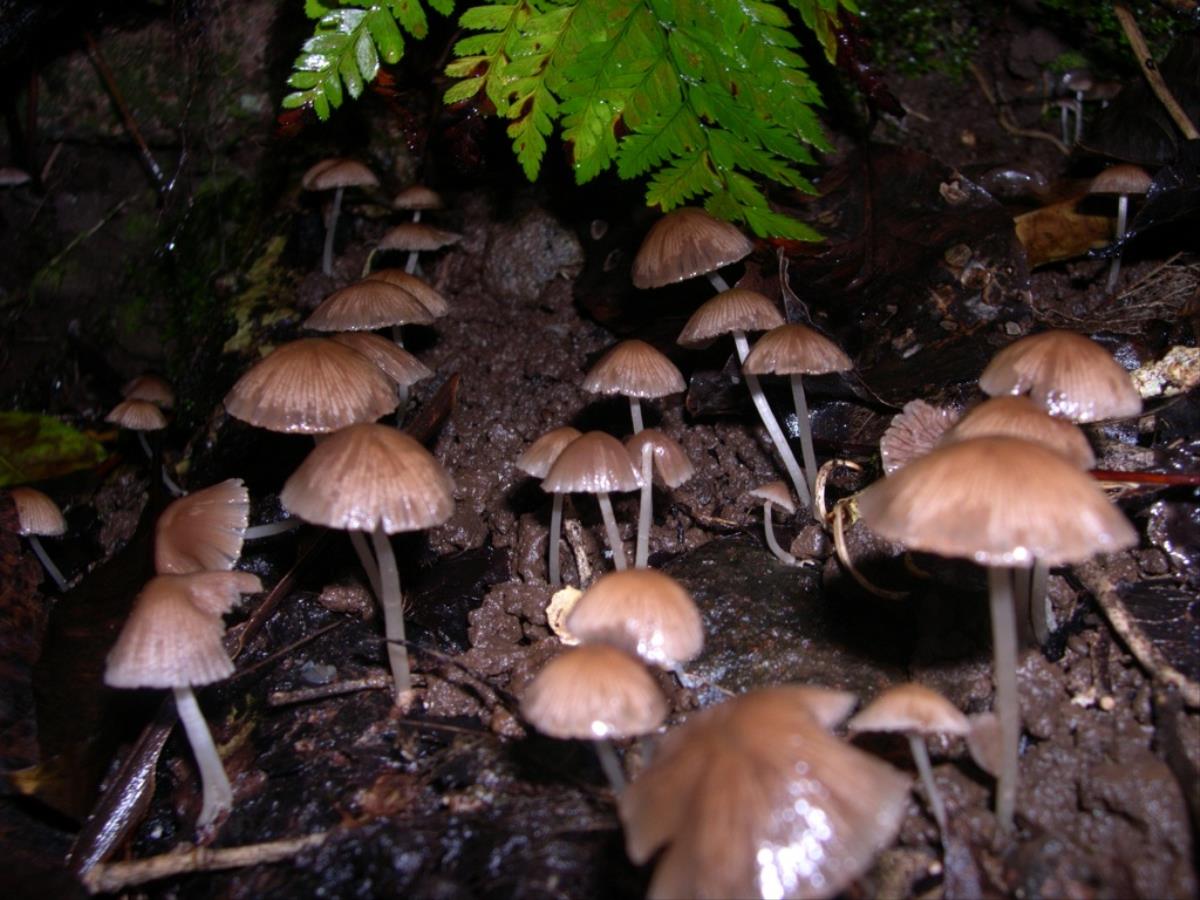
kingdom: Fungi
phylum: Basidiomycota
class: Agaricomycetes
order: Agaricales
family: Psathyrellaceae
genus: Psathyrella
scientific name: Psathyrella
